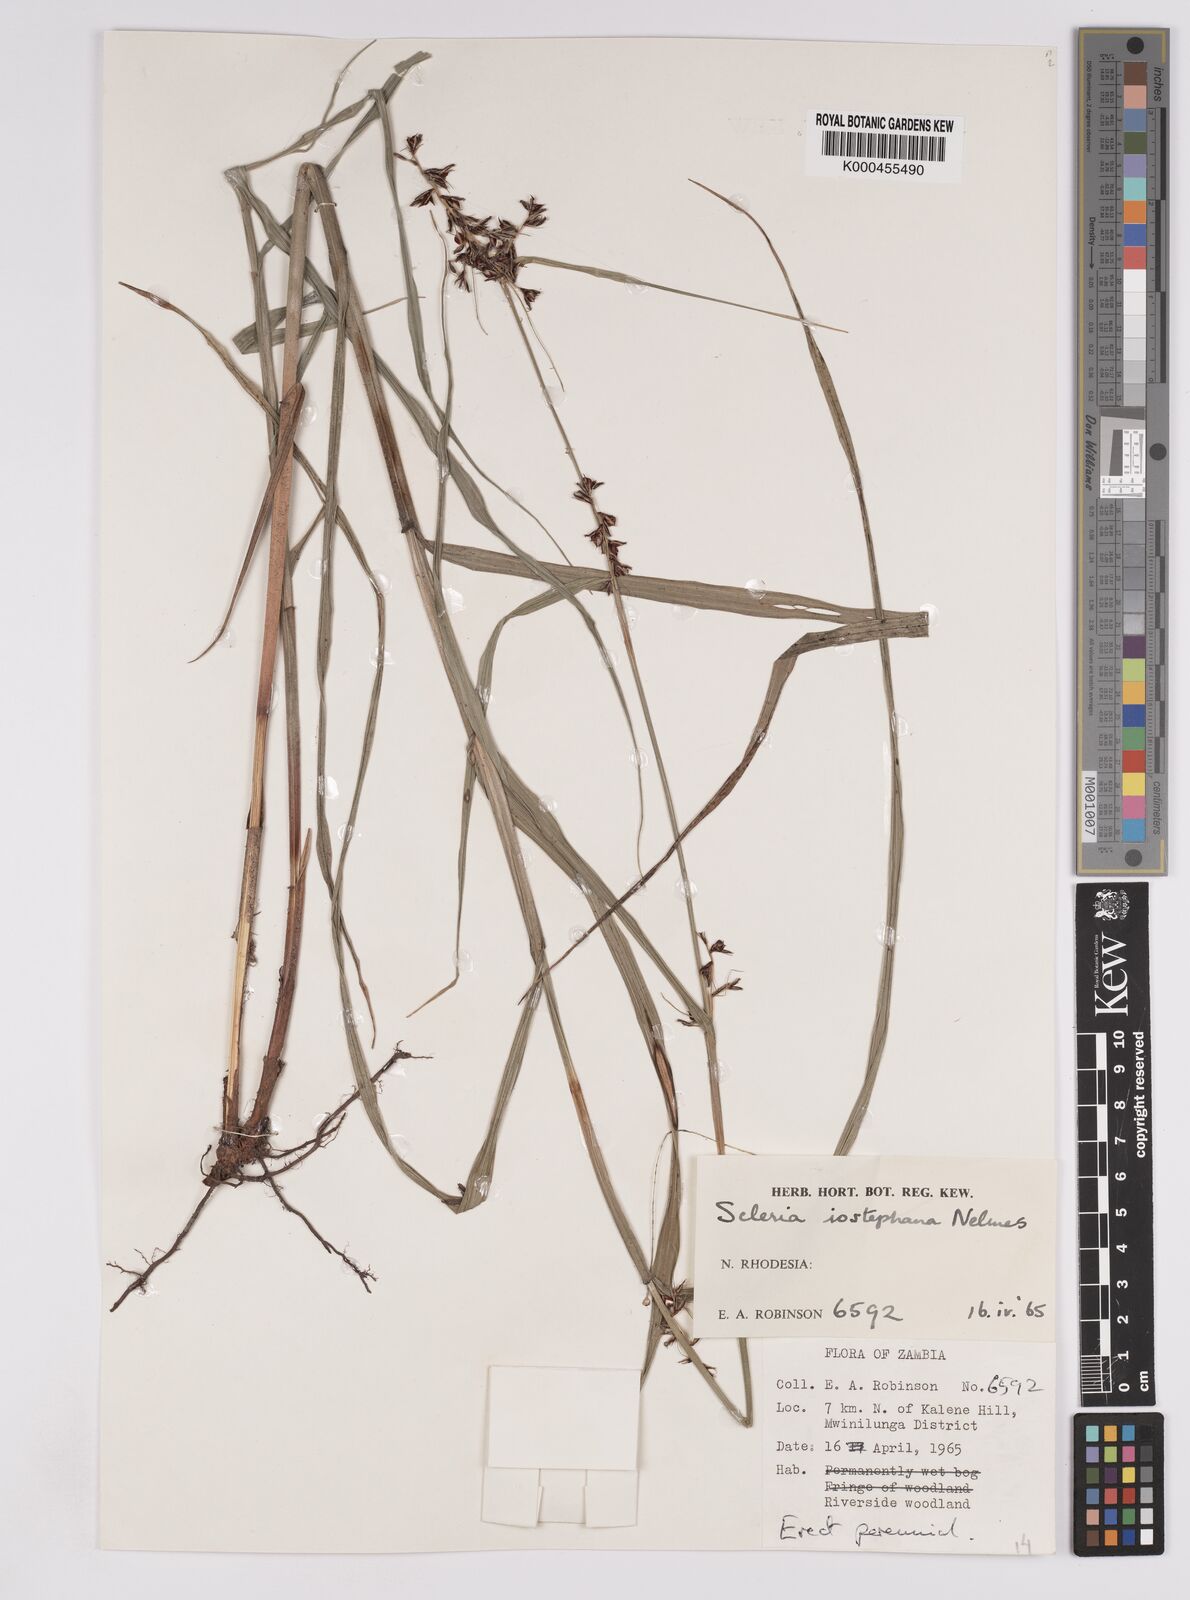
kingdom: Plantae
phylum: Tracheophyta
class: Liliopsida
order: Poales
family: Cyperaceae
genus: Scleria
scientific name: Scleria iostephana
